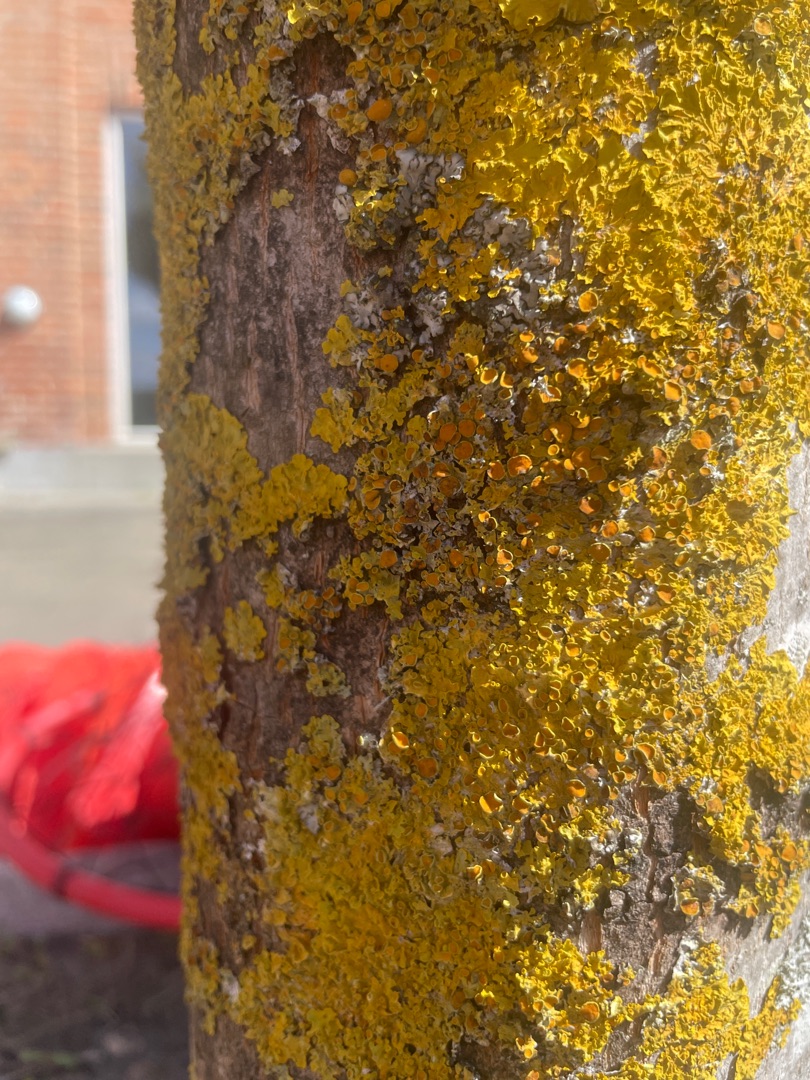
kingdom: Fungi
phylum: Ascomycota
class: Lecanoromycetes
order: Teloschistales
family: Teloschistaceae
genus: Xanthoria
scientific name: Xanthoria parietina
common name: Almindelig væggelav
